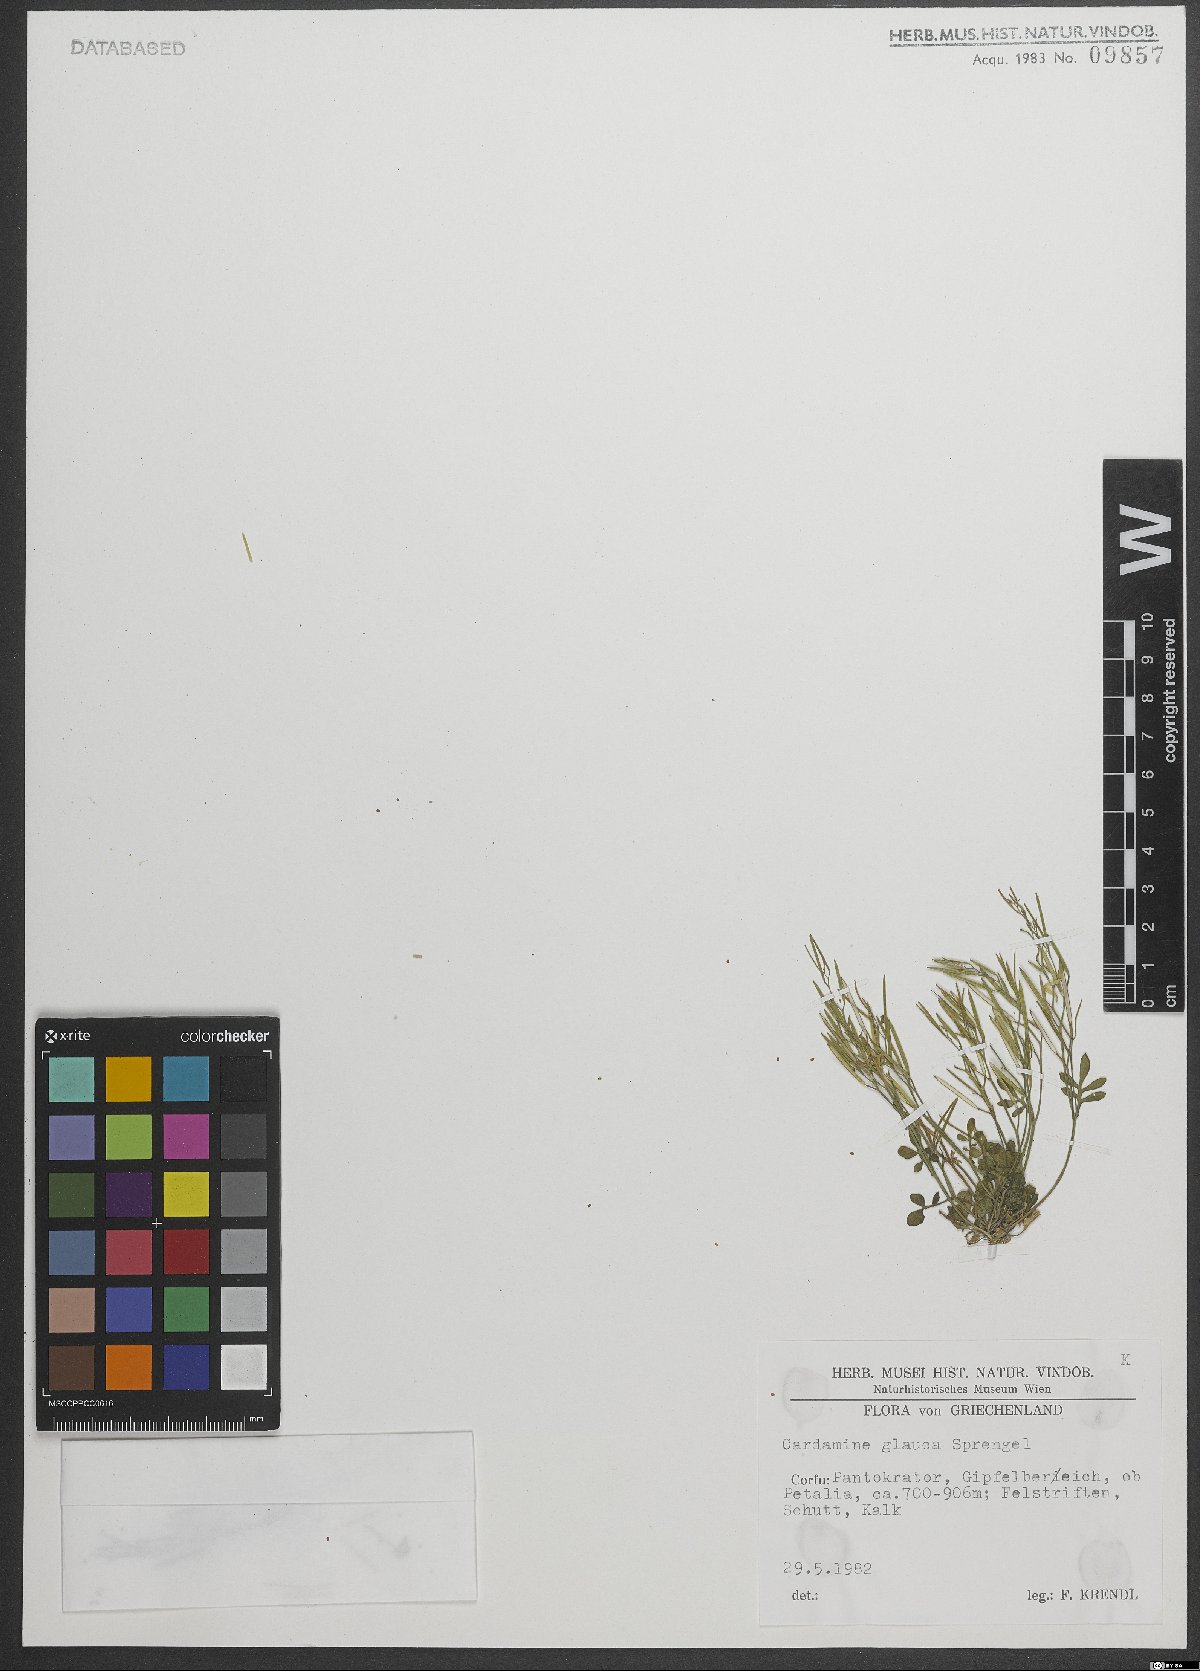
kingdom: Plantae
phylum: Tracheophyta
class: Magnoliopsida
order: Brassicales
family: Brassicaceae
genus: Cardamine
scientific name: Cardamine glauca
